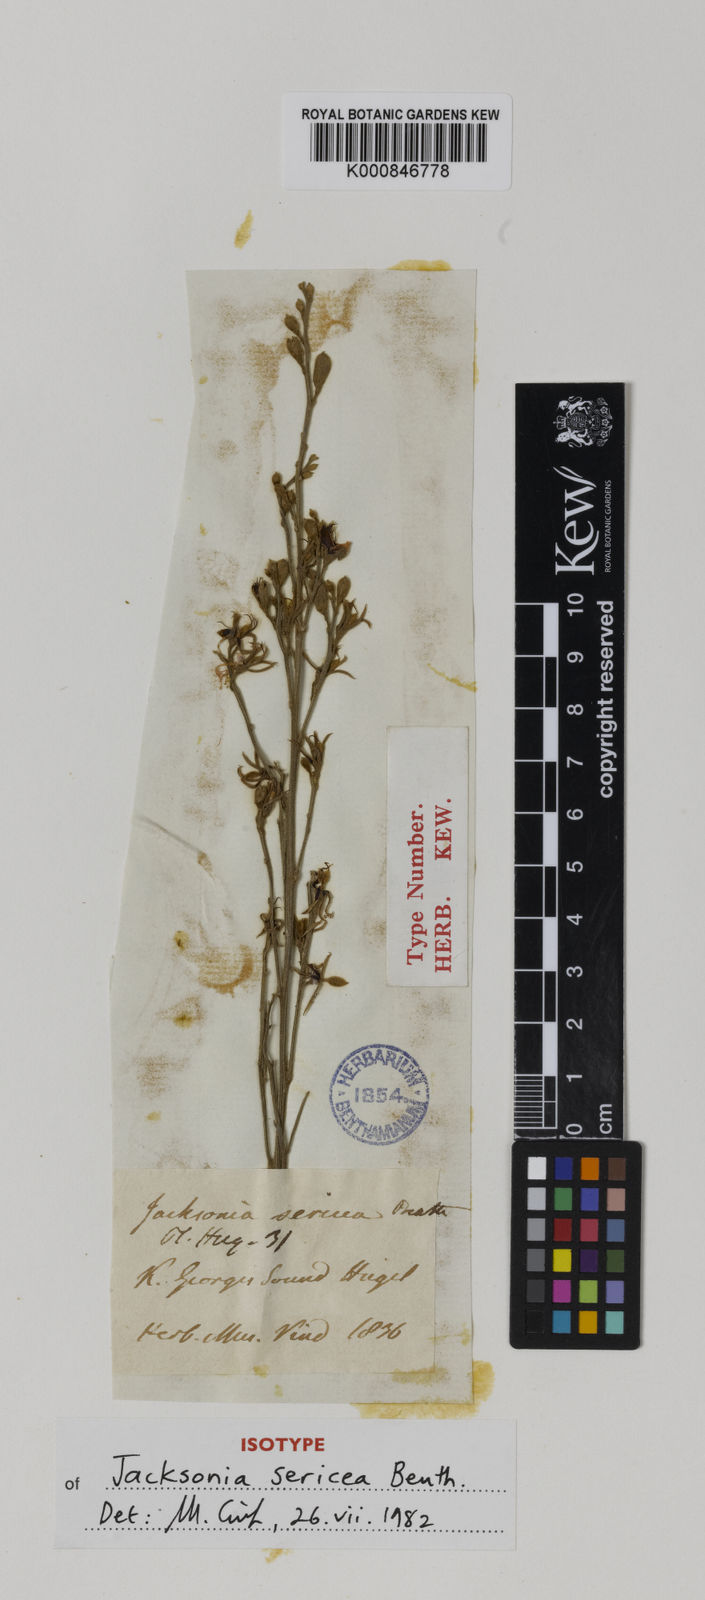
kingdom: Plantae
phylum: Tracheophyta
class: Magnoliopsida
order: Fabales
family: Fabaceae
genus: Jacksonia
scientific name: Jacksonia sericea
